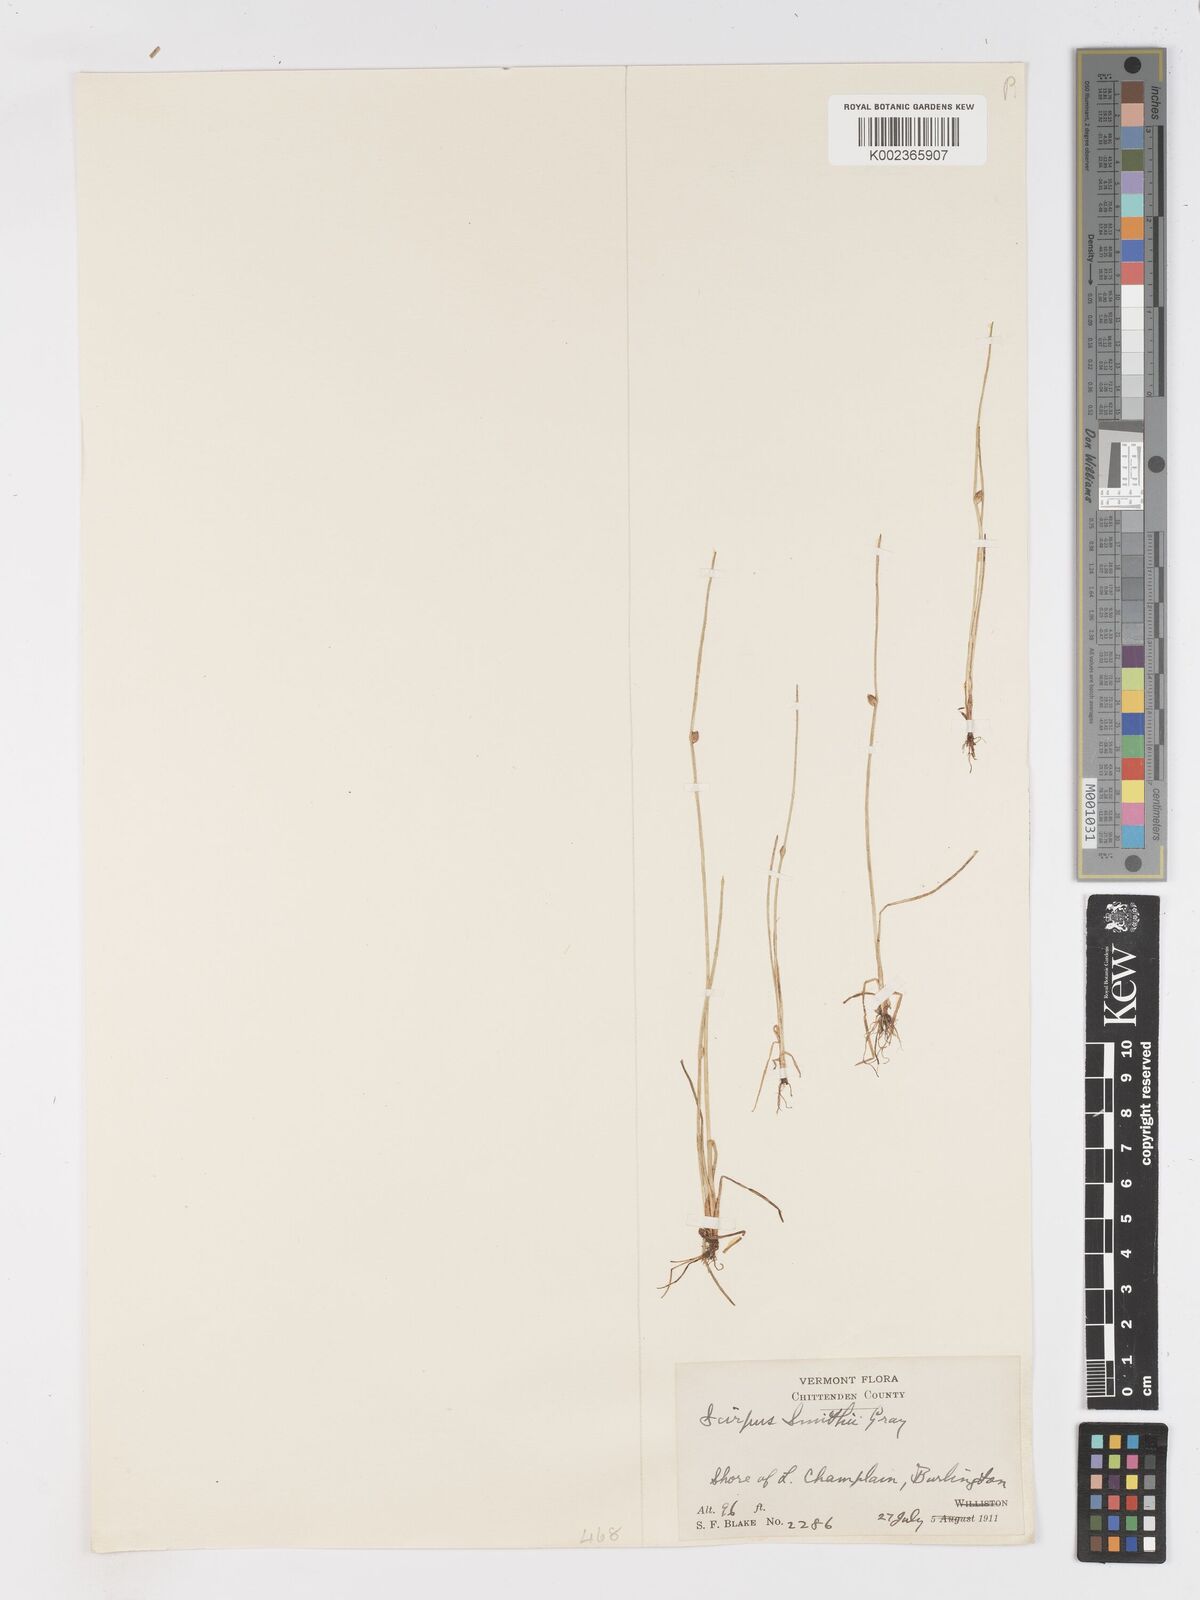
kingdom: Plantae
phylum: Tracheophyta
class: Liliopsida
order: Poales
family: Cyperaceae
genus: Schoenoplectiella
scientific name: Schoenoplectiella smithii
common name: Smith's bulrush
